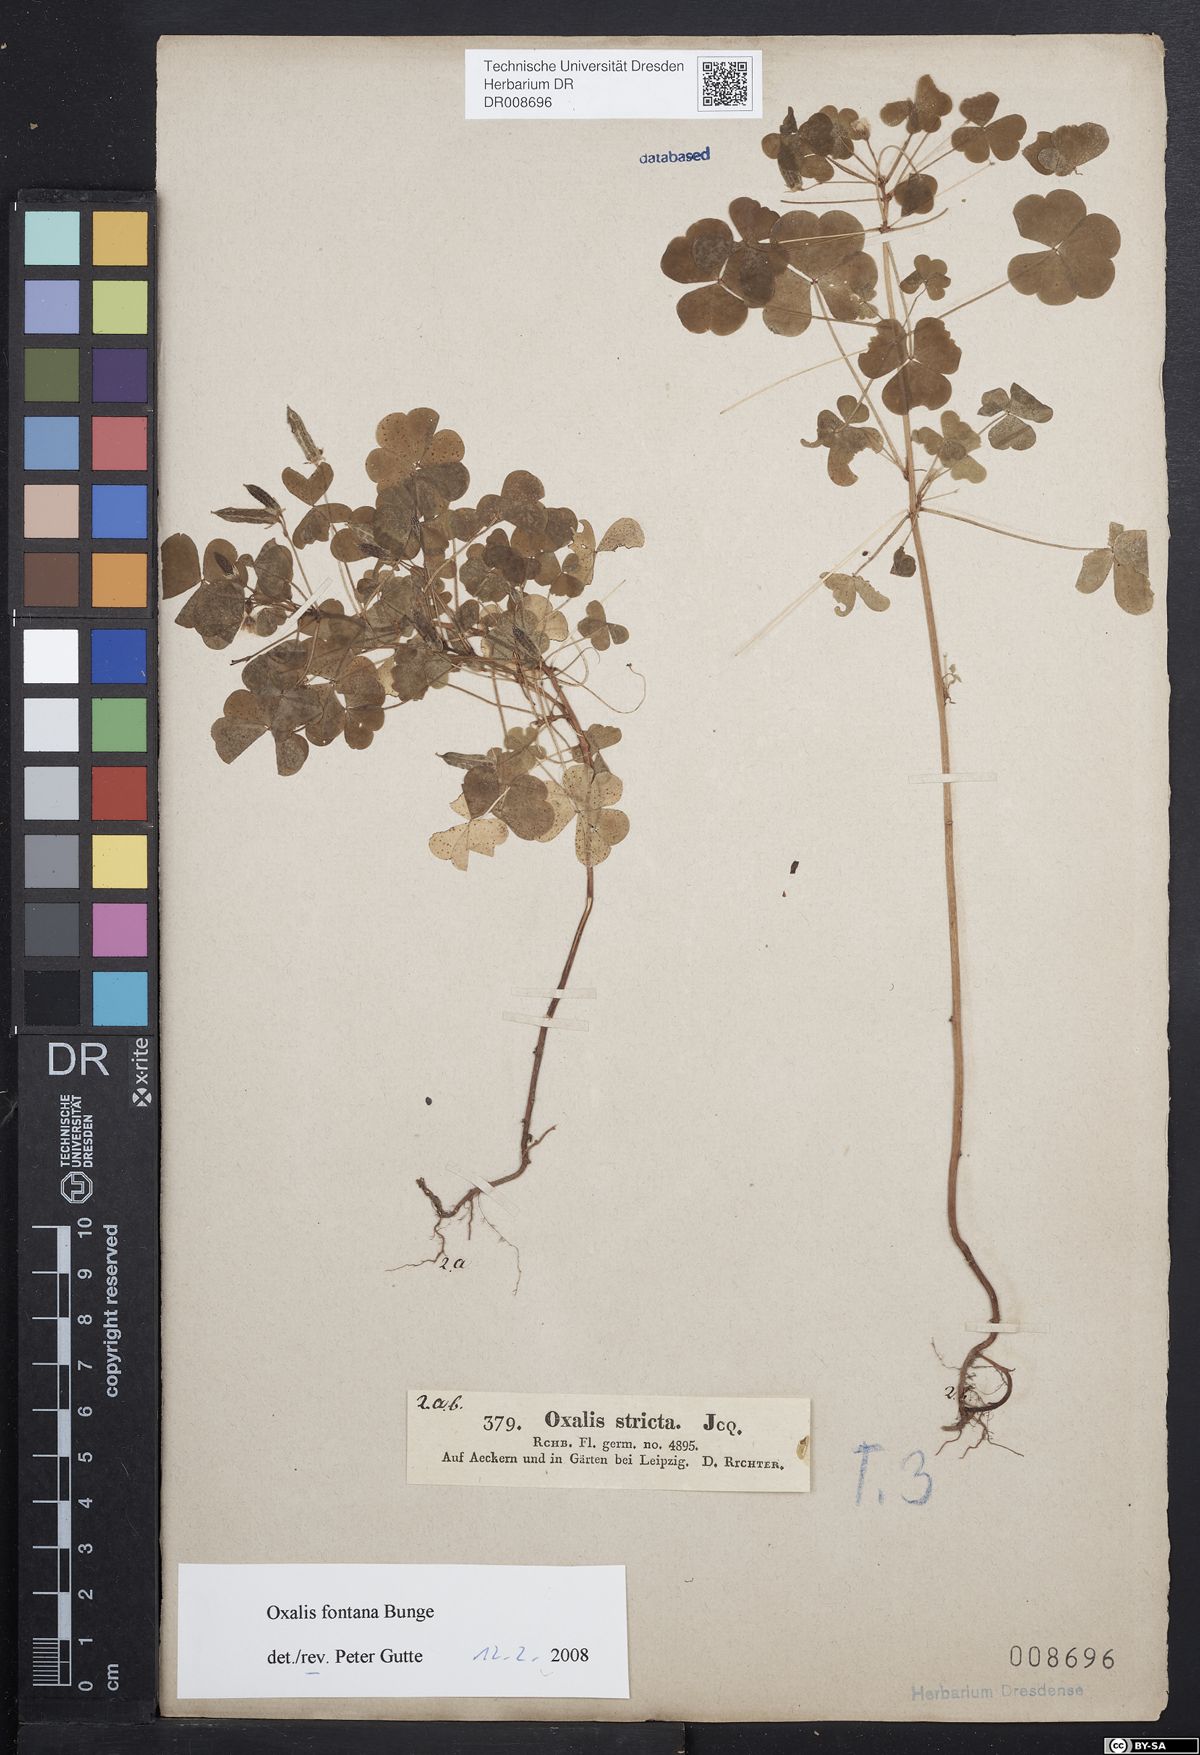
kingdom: Plantae
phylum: Tracheophyta
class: Magnoliopsida
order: Oxalidales
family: Oxalidaceae
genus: Oxalis
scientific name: Oxalis stricta
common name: Upright yellow-sorrel
